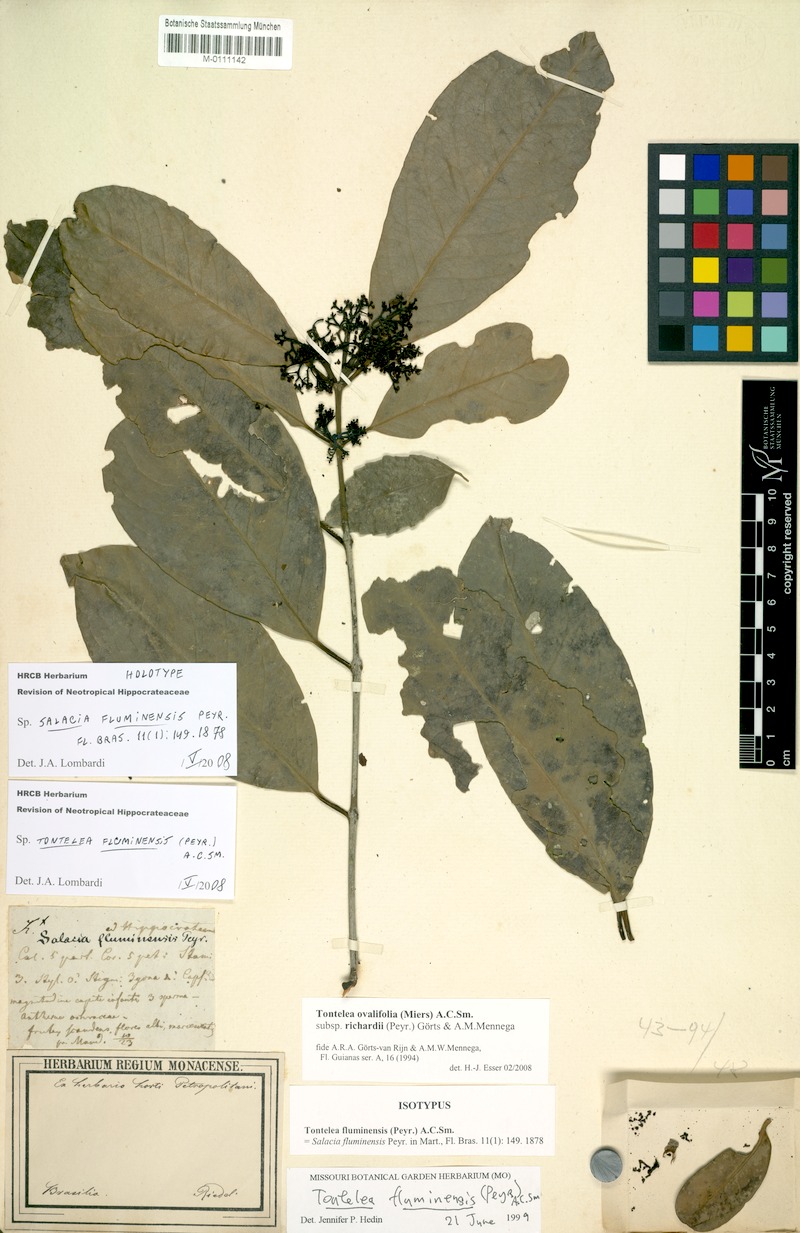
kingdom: Plantae
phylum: Tracheophyta
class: Magnoliopsida
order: Celastrales
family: Celastraceae
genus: Tontelea
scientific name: Tontelea passiflora
